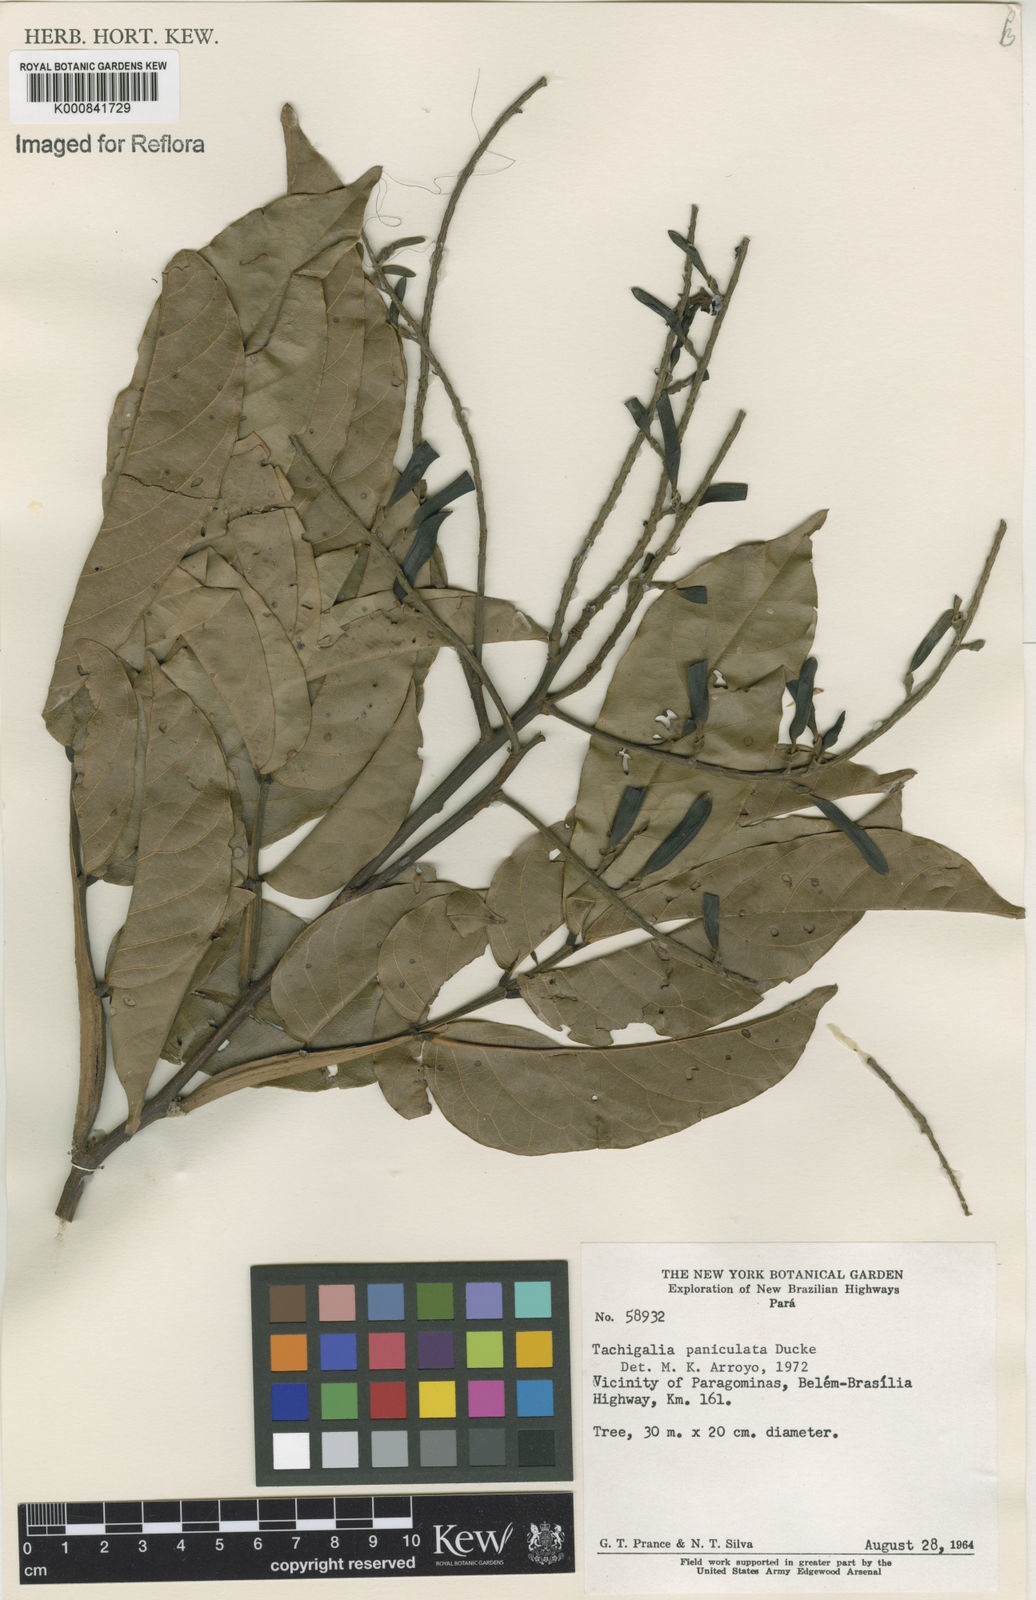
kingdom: Plantae
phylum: Tracheophyta
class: Magnoliopsida
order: Fabales
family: Fabaceae
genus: Tachigali
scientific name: Tachigali paniculata
